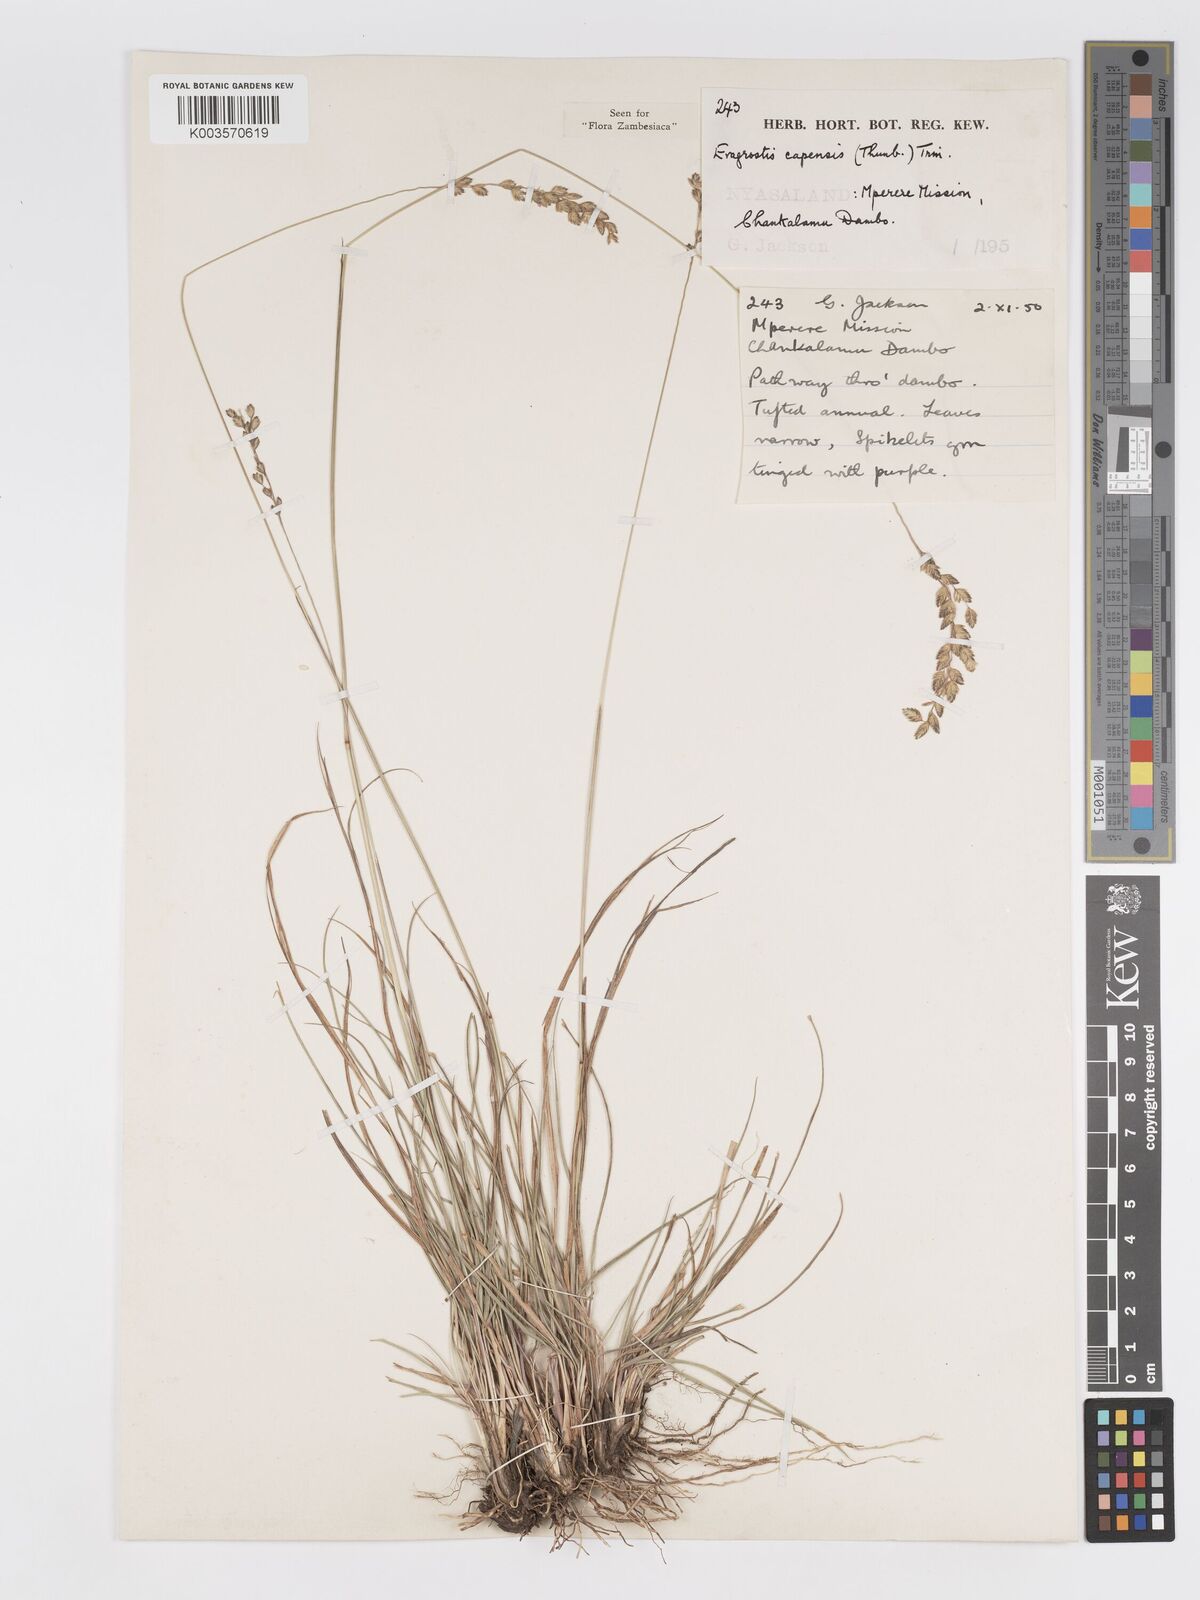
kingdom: Plantae
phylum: Tracheophyta
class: Liliopsida
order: Poales
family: Poaceae
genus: Eragrostis
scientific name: Eragrostis capensis
